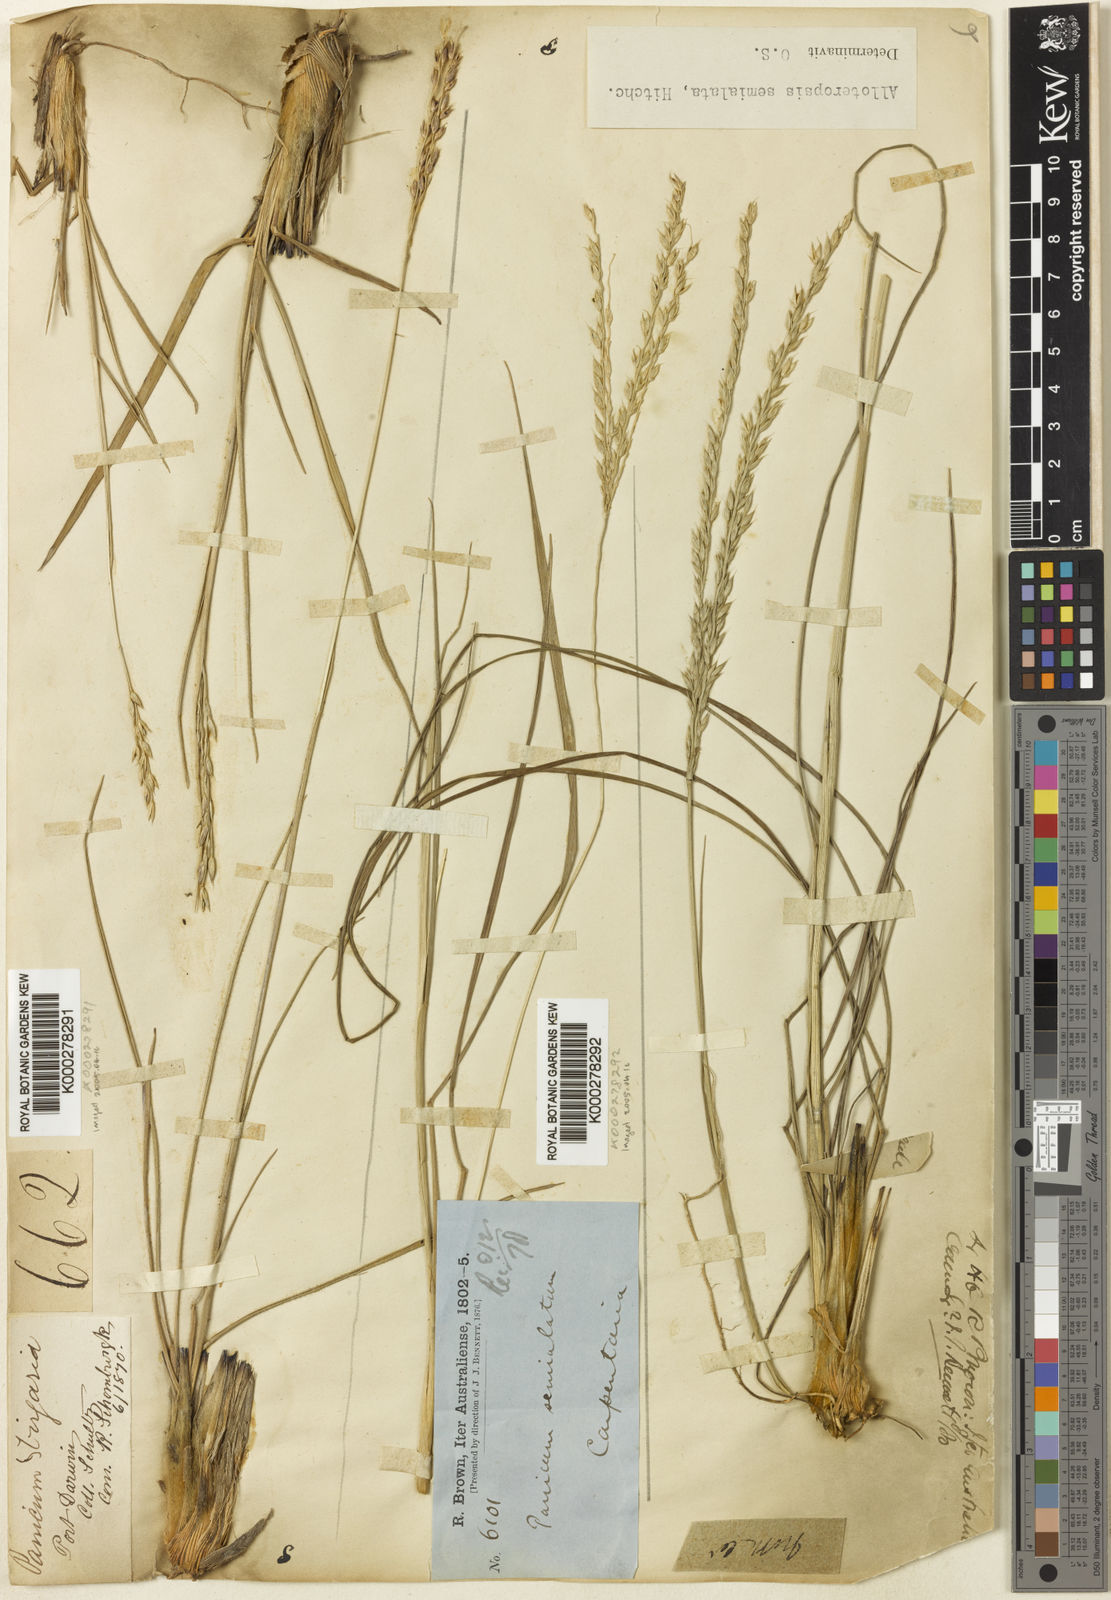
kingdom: Plantae
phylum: Tracheophyta
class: Liliopsida
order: Poales
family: Poaceae
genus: Alloteropsis
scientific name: Alloteropsis semialata
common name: Cockatoo grass
